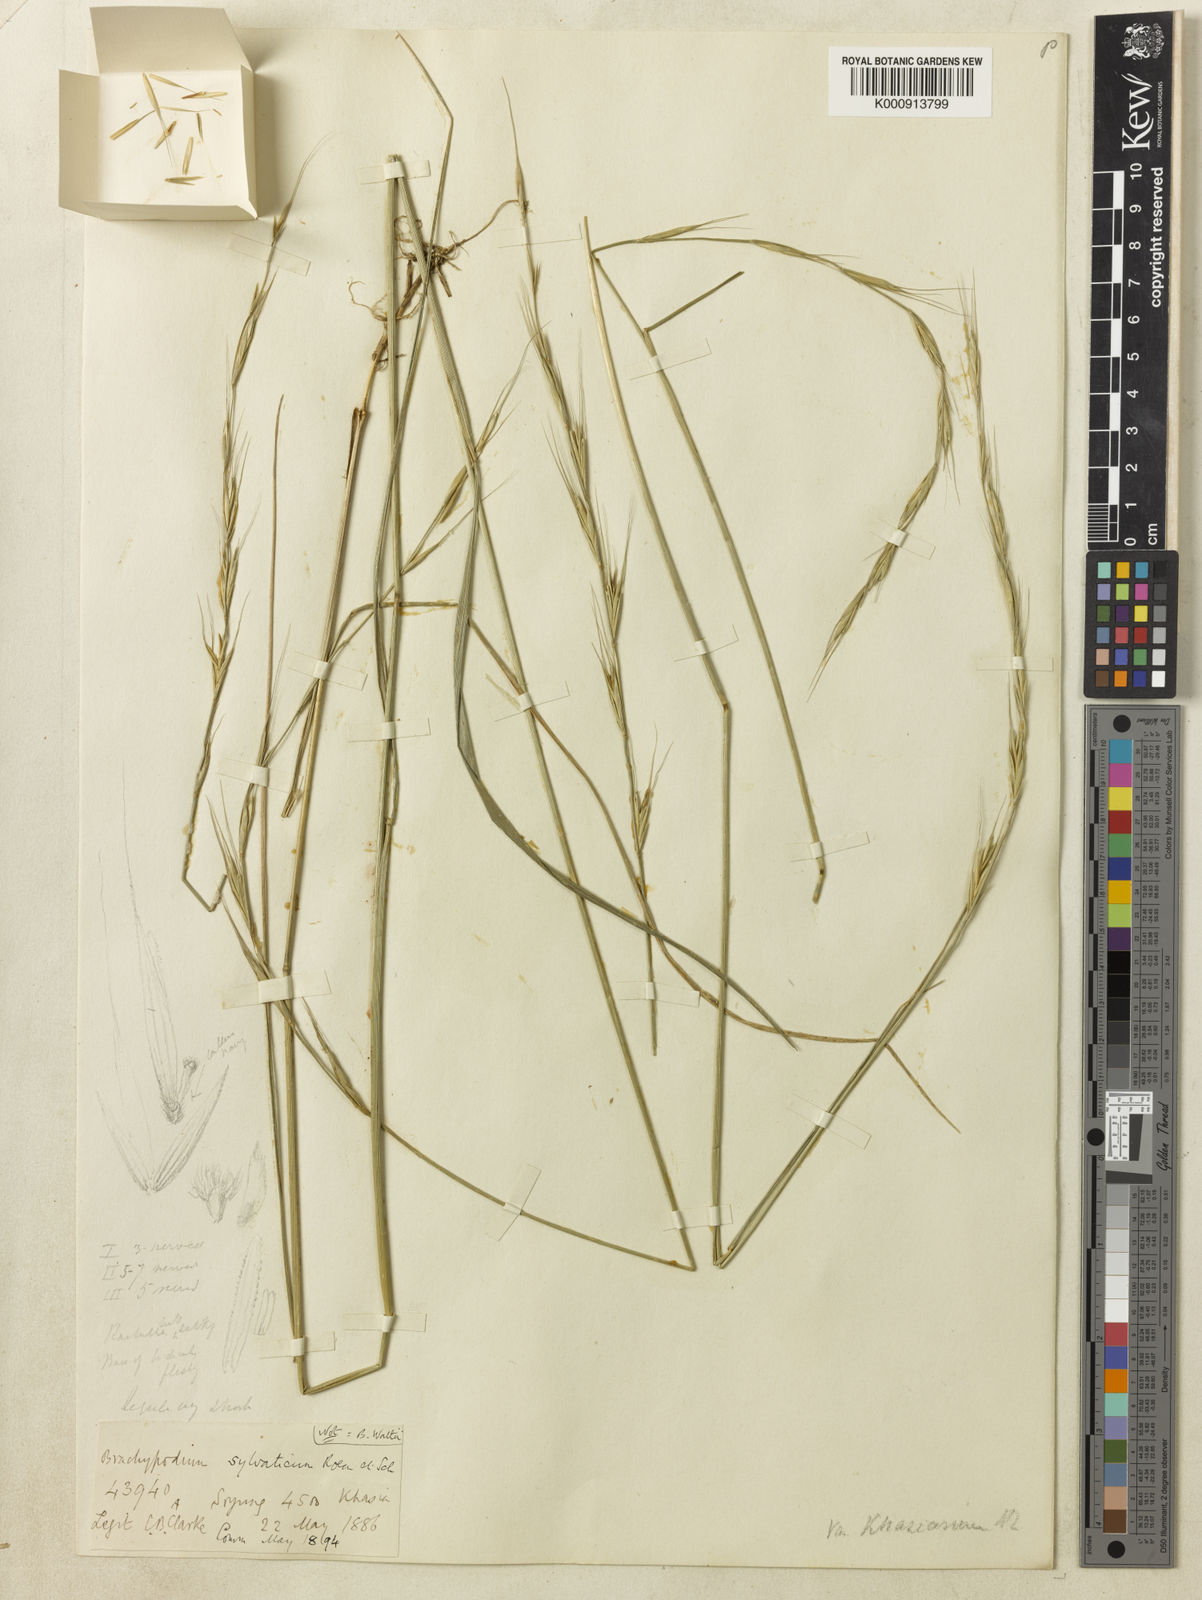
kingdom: Plantae
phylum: Tracheophyta
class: Liliopsida
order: Poales
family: Poaceae
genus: Brachypodium
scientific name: Brachypodium
